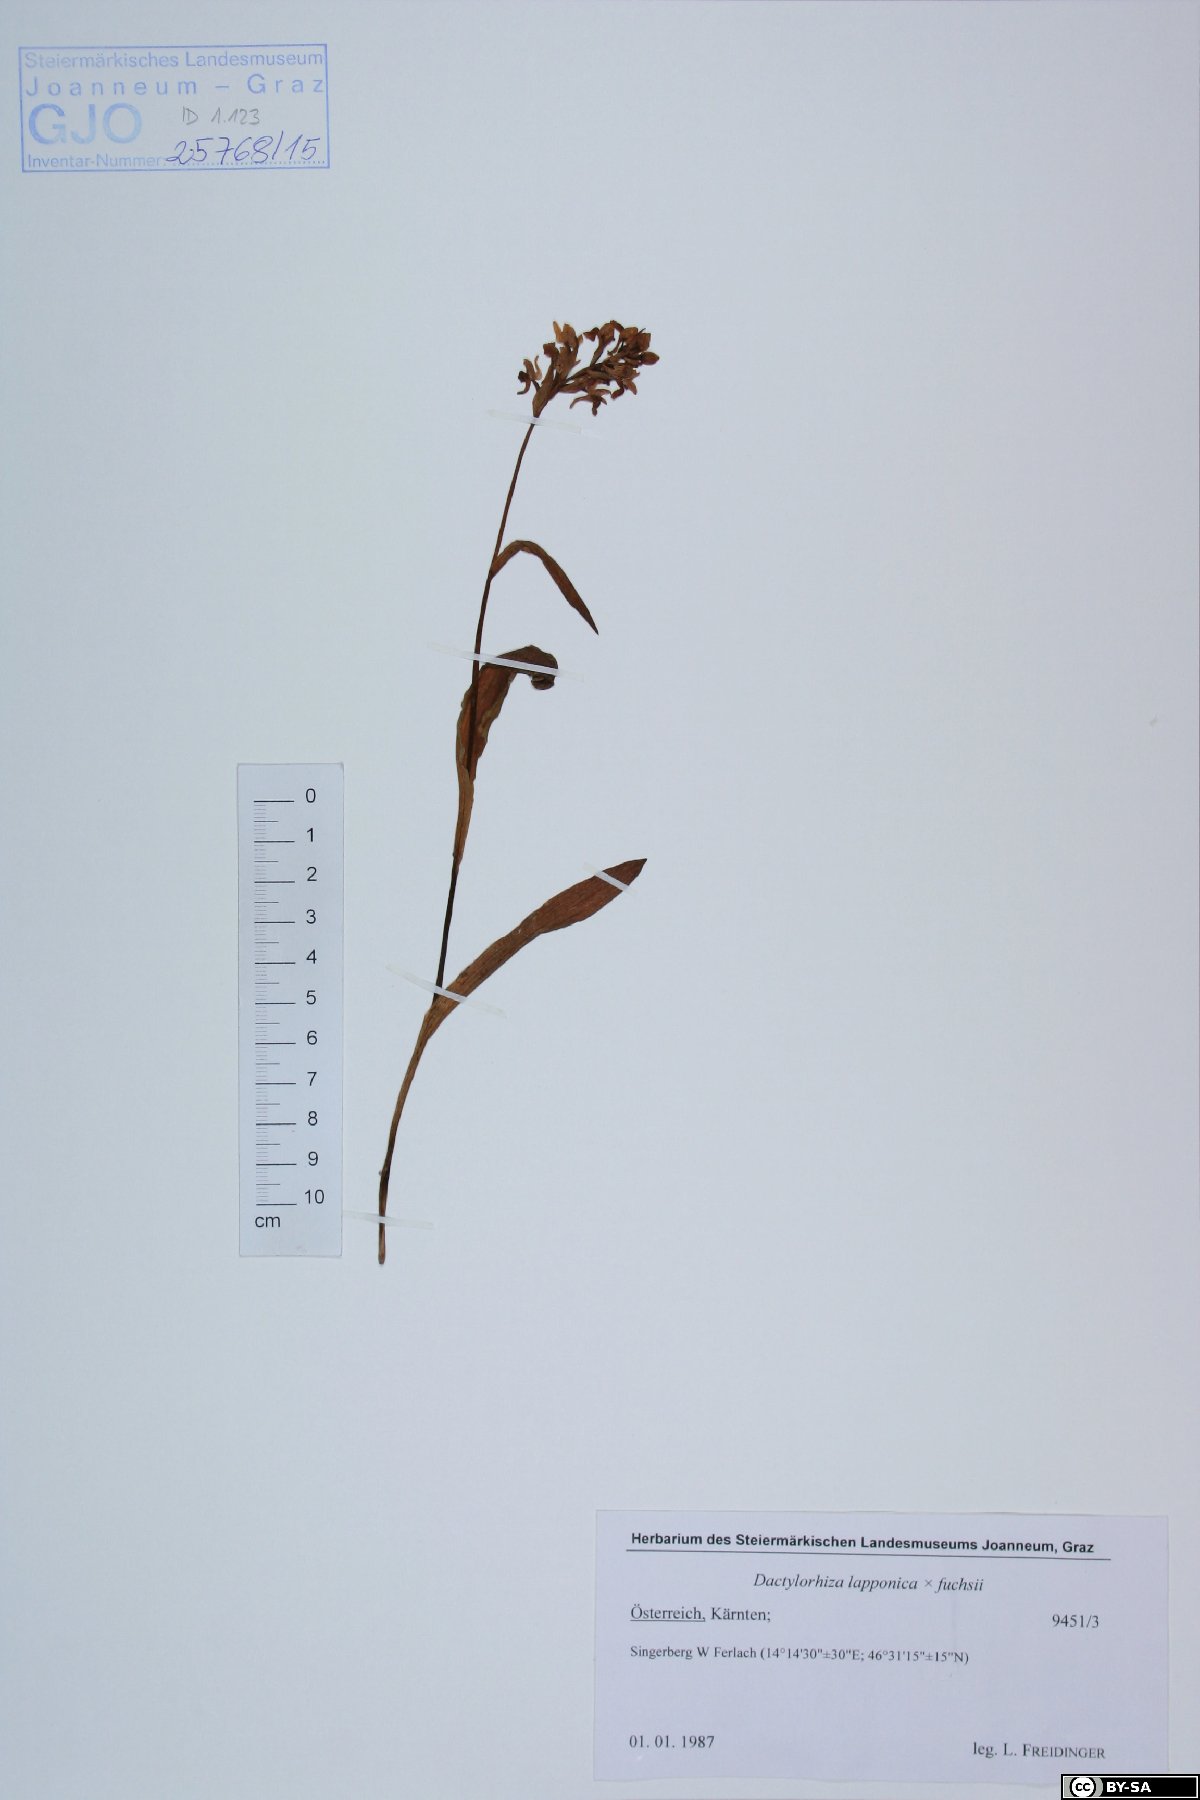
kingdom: Plantae
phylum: Tracheophyta
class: Liliopsida
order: Asparagales
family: Orchidaceae
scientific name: Orchidaceae
